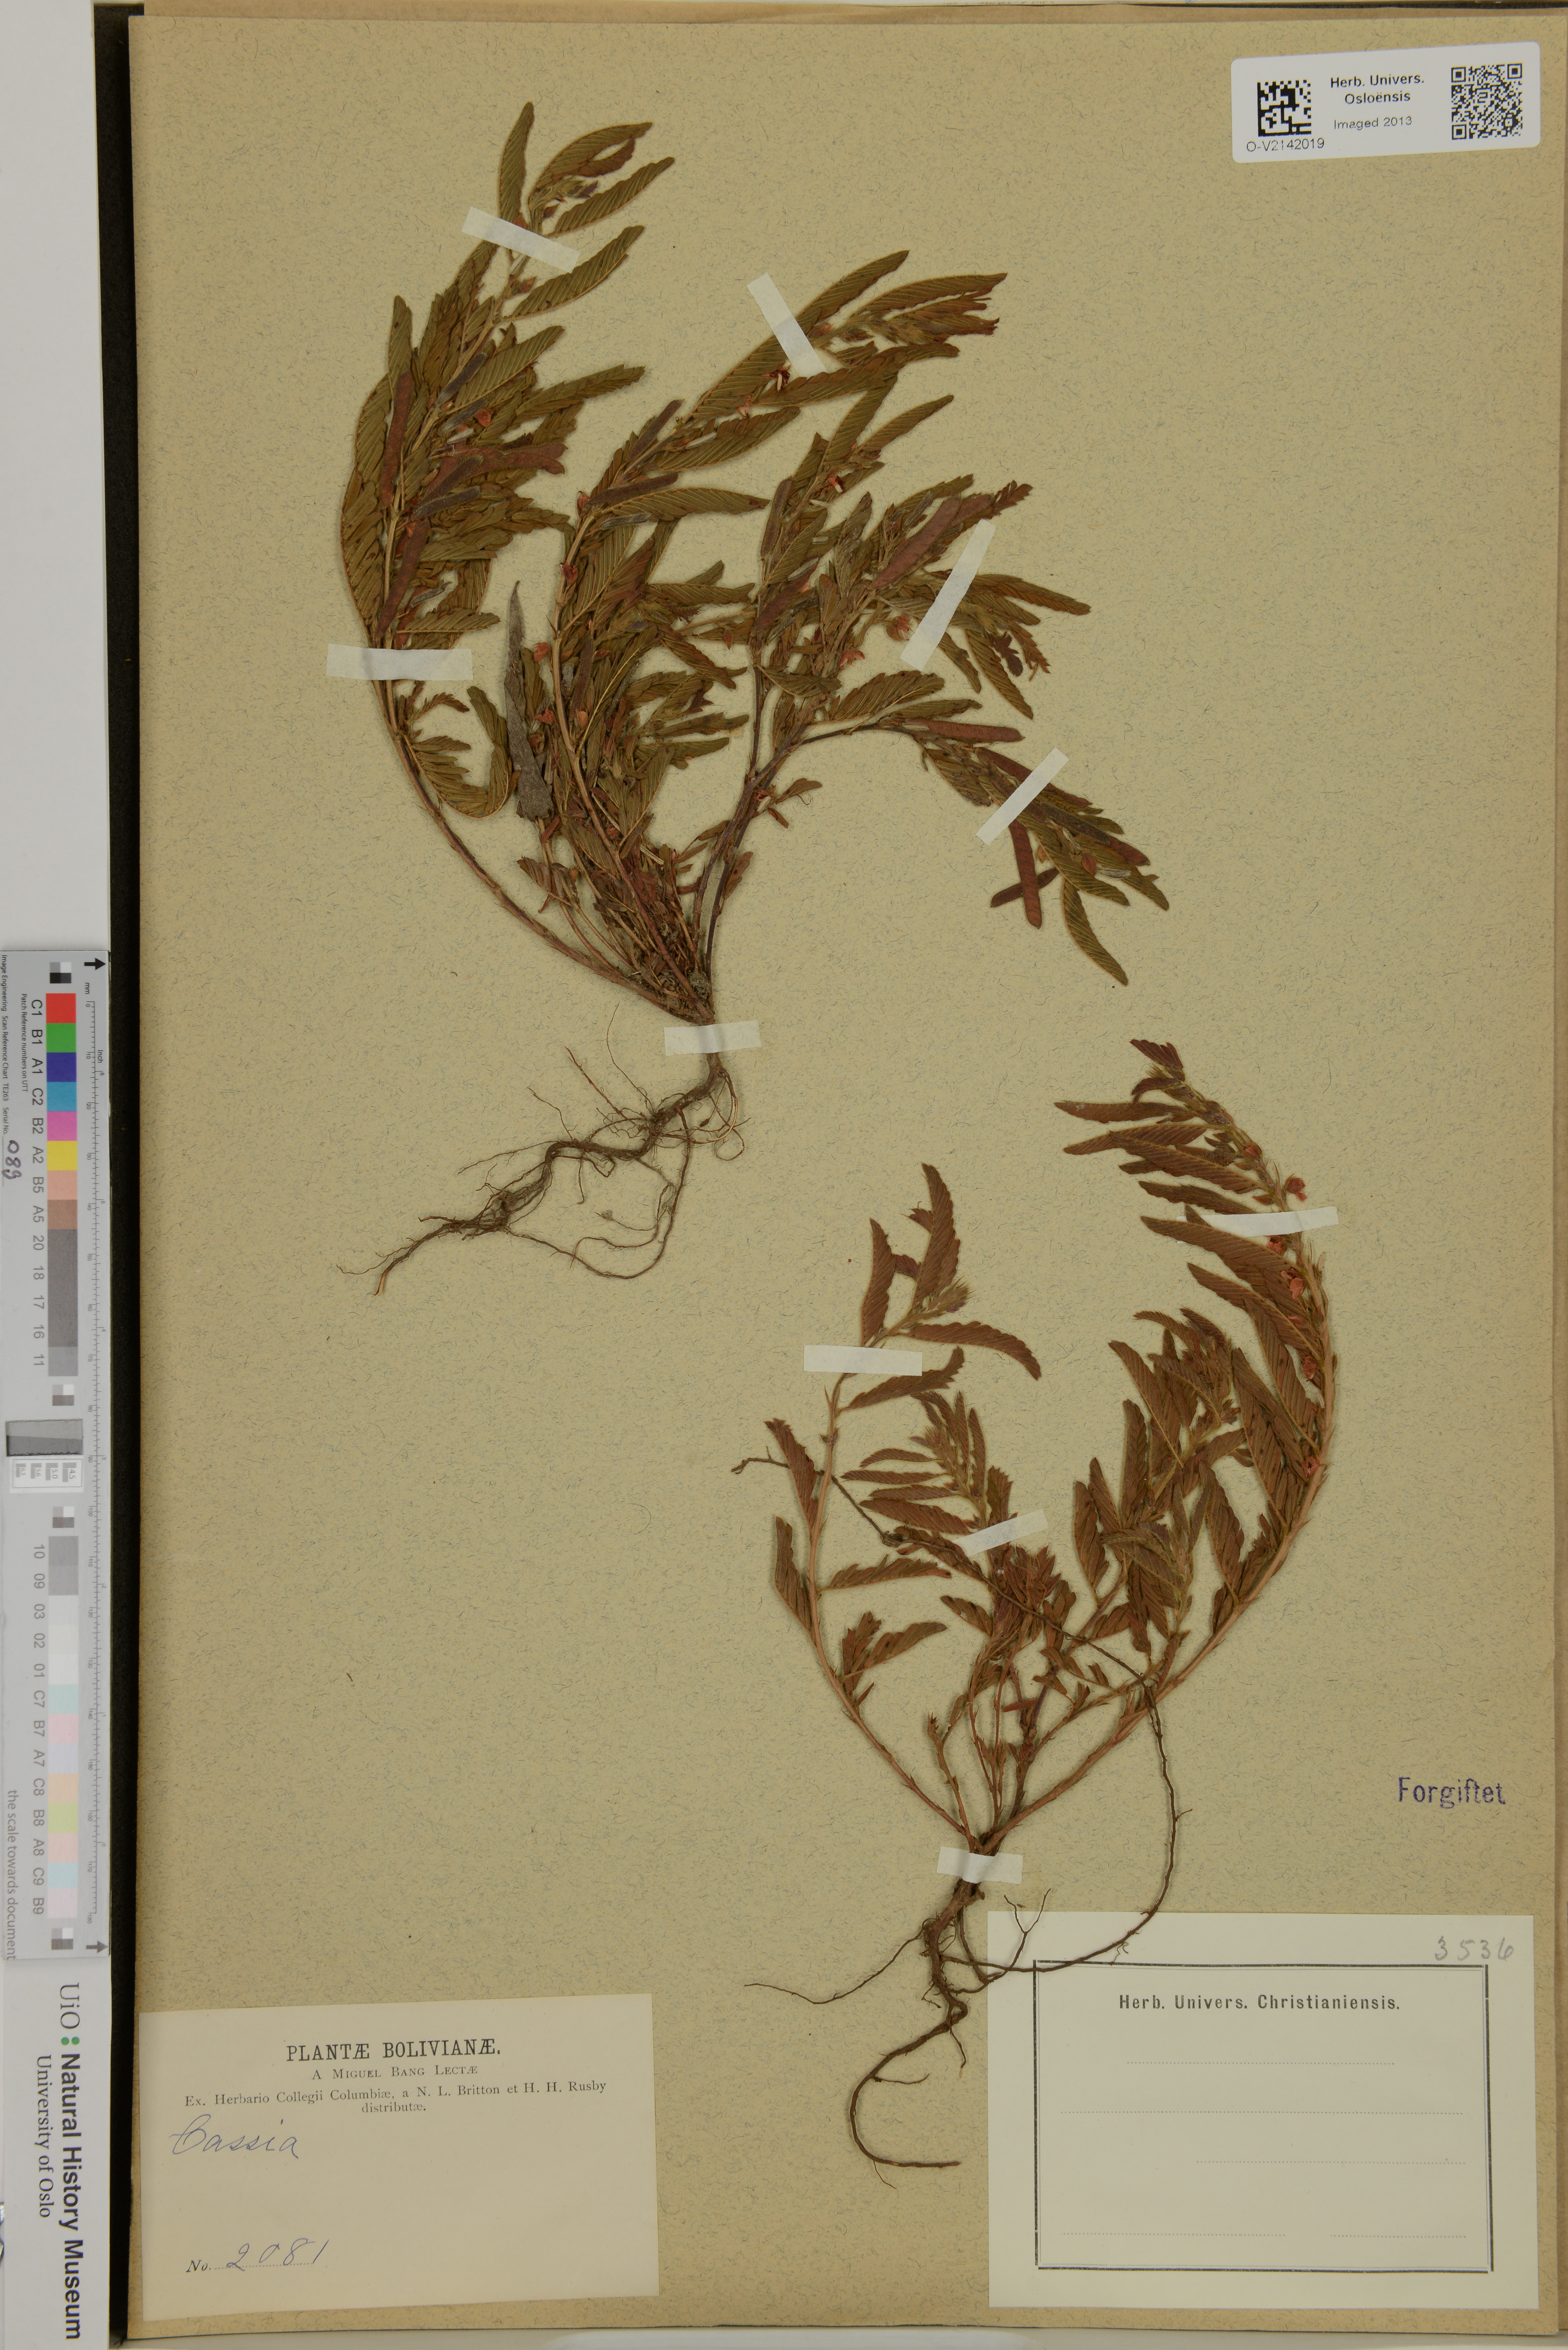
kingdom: Plantae
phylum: Tracheophyta
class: Magnoliopsida
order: Fabales
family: Fabaceae
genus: Cassia
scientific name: Cassia
